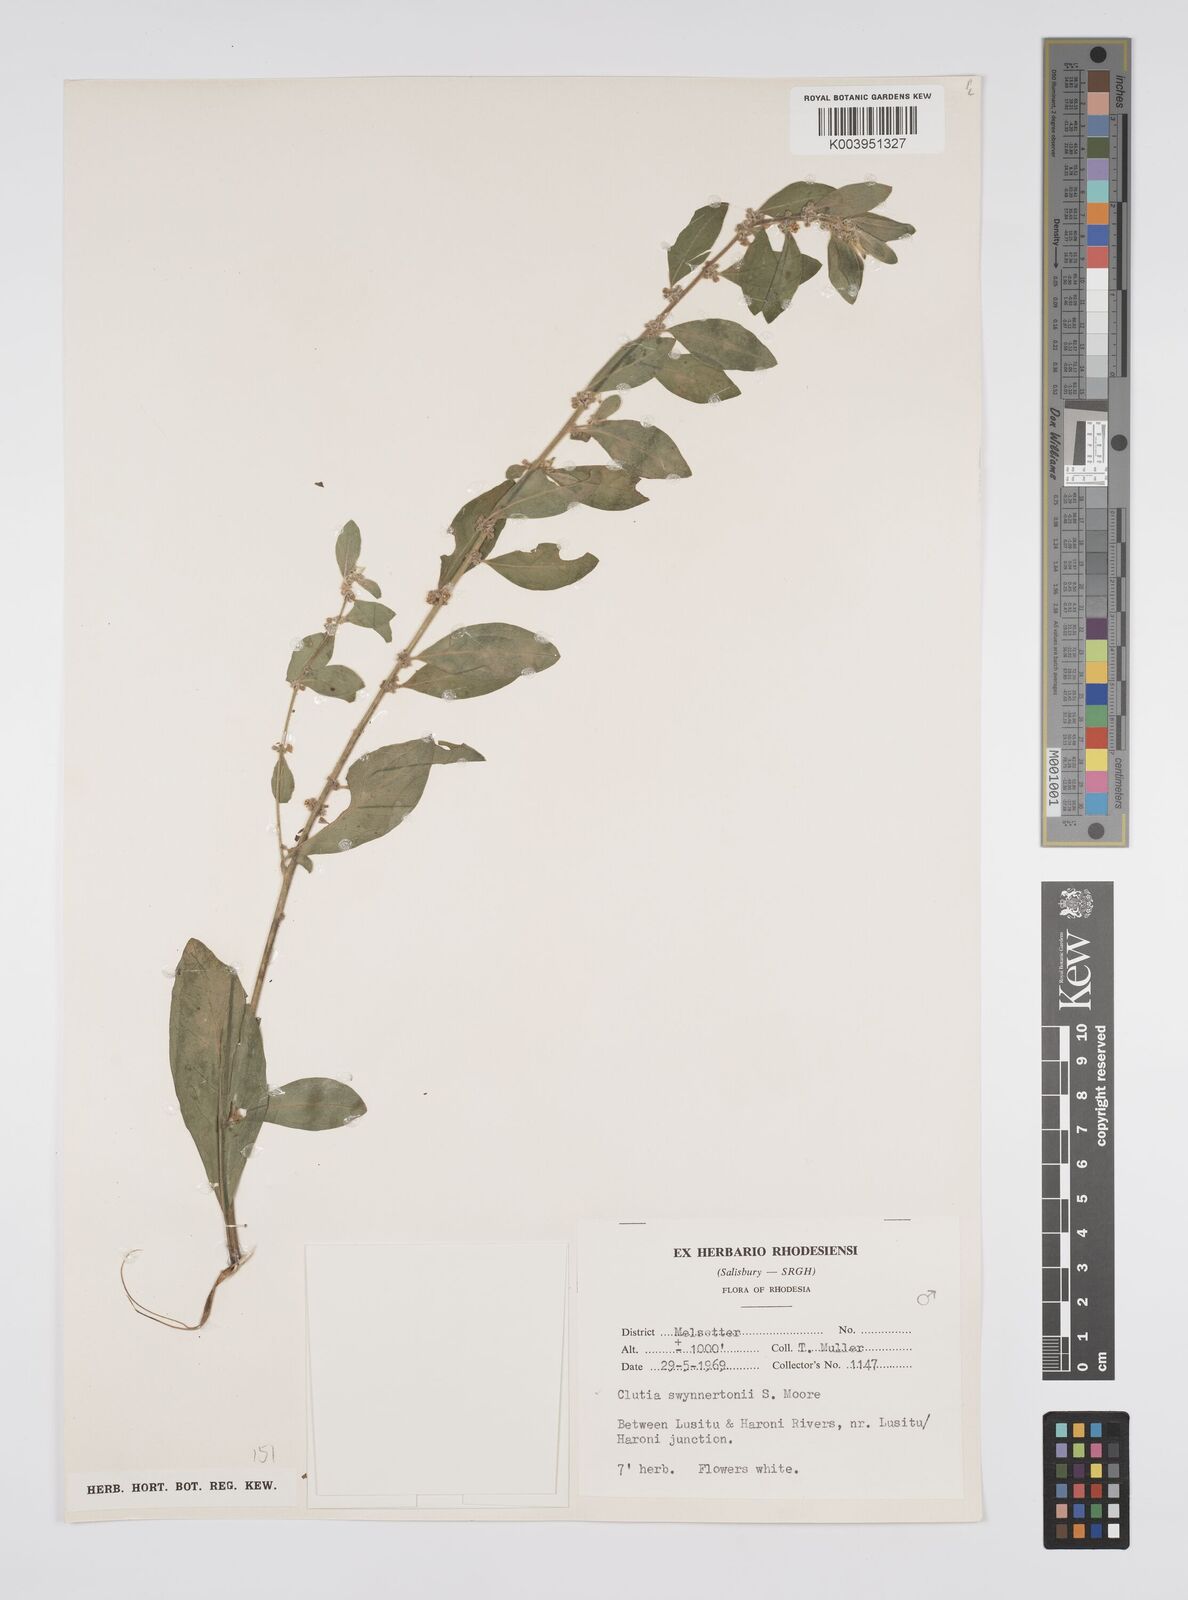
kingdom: Plantae
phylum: Tracheophyta
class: Magnoliopsida
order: Malpighiales
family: Peraceae
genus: Clutia
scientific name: Clutia swynnertonii
